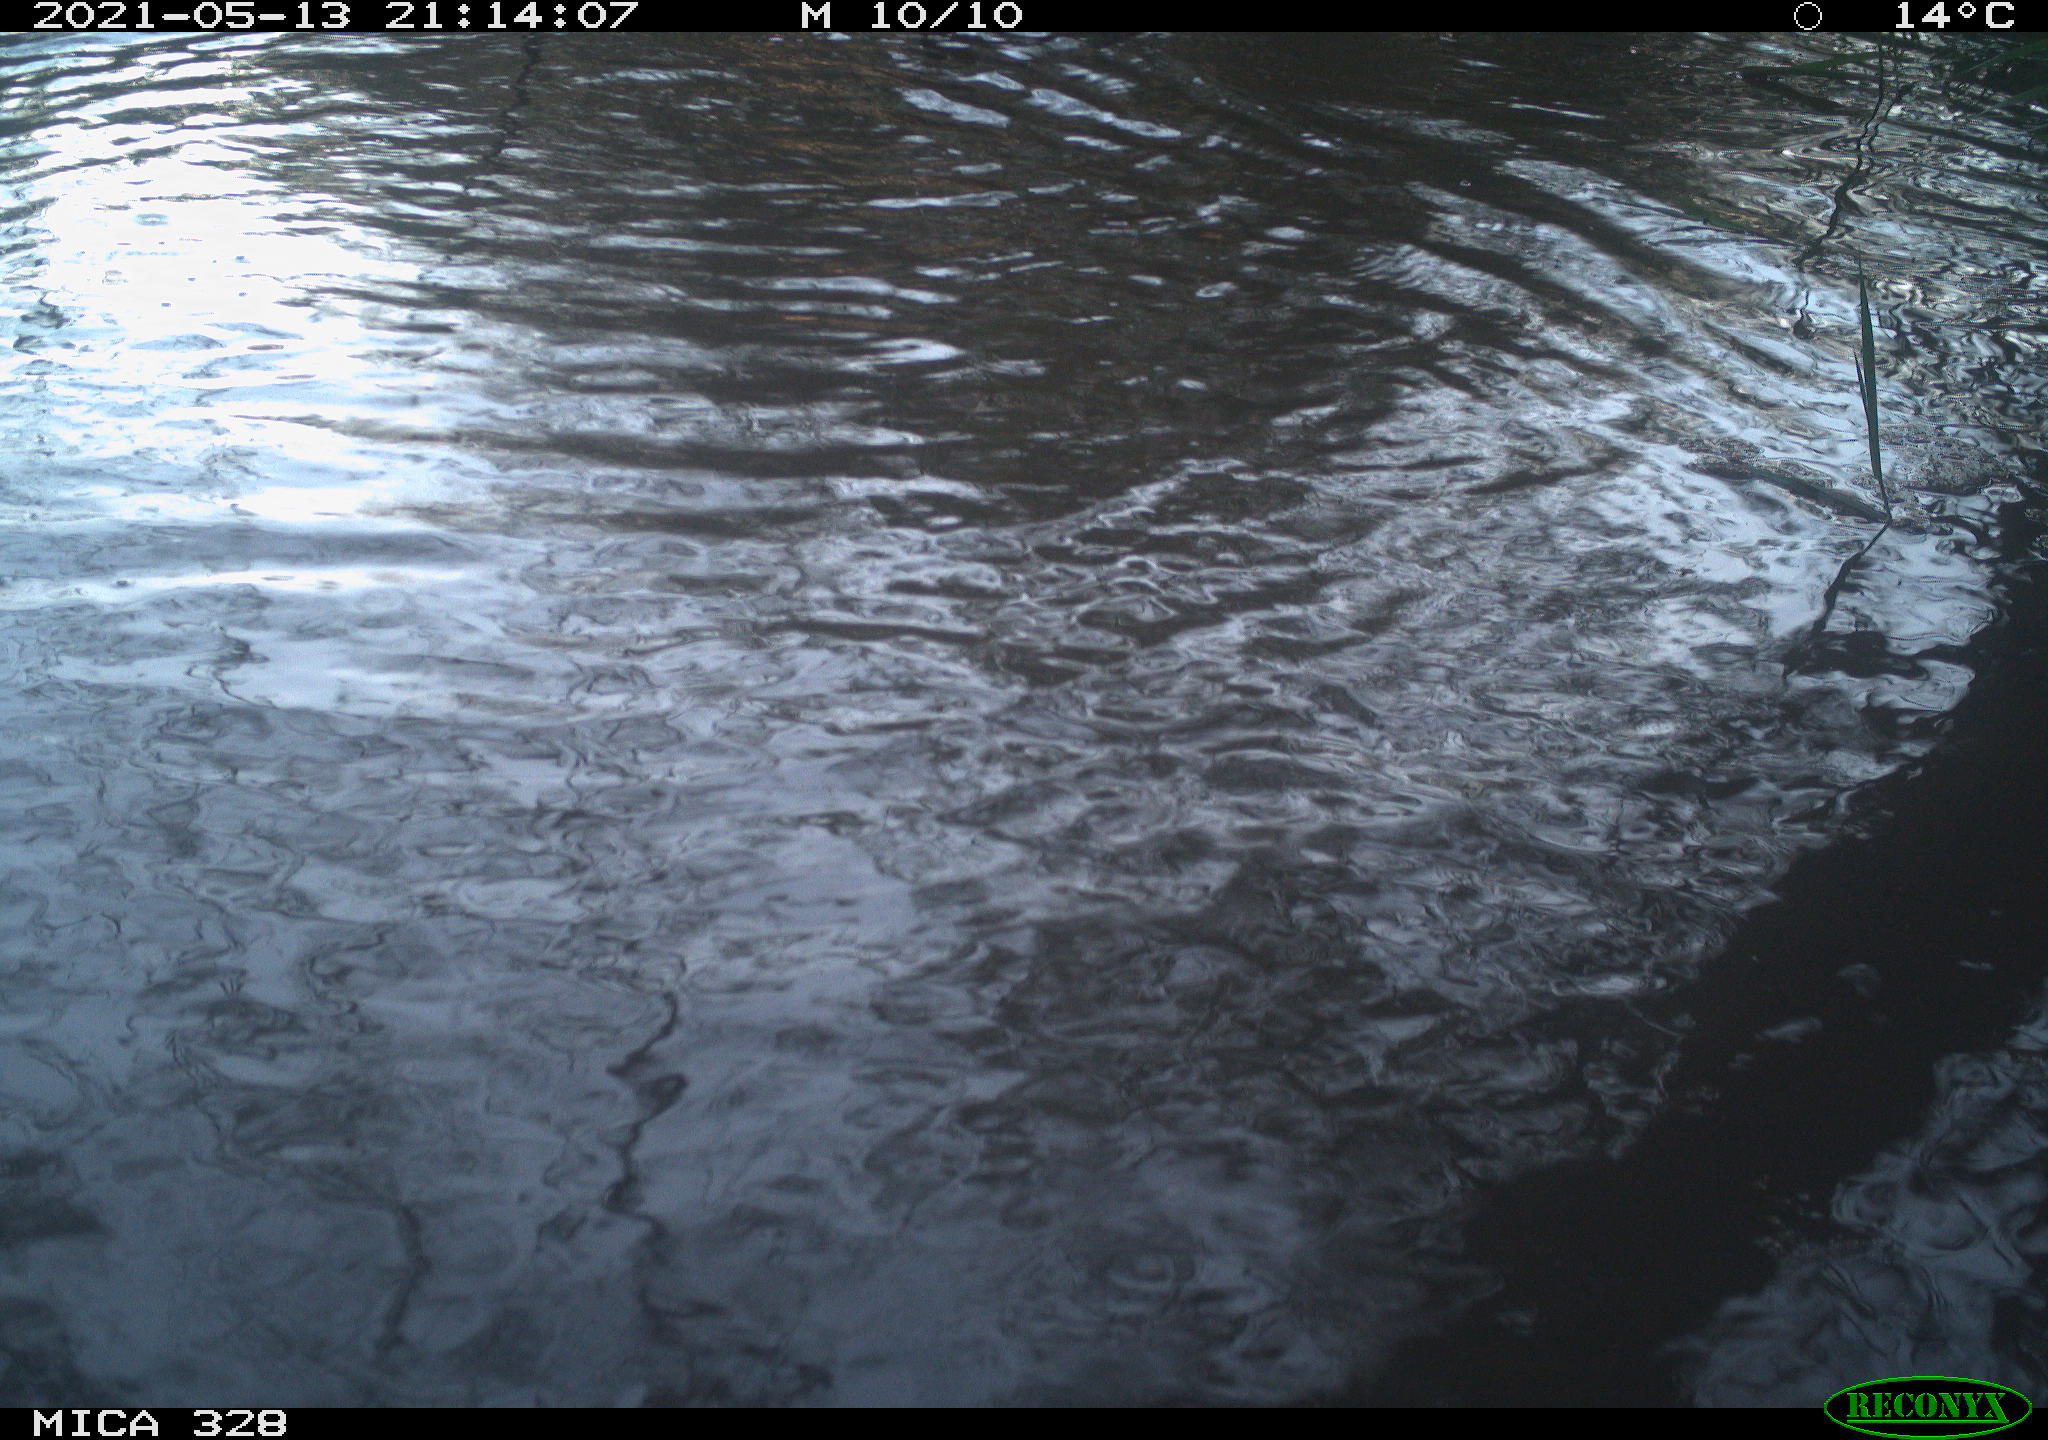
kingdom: Animalia
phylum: Chordata
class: Aves
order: Anseriformes
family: Anatidae
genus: Anas
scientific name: Anas platyrhynchos
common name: Mallard
